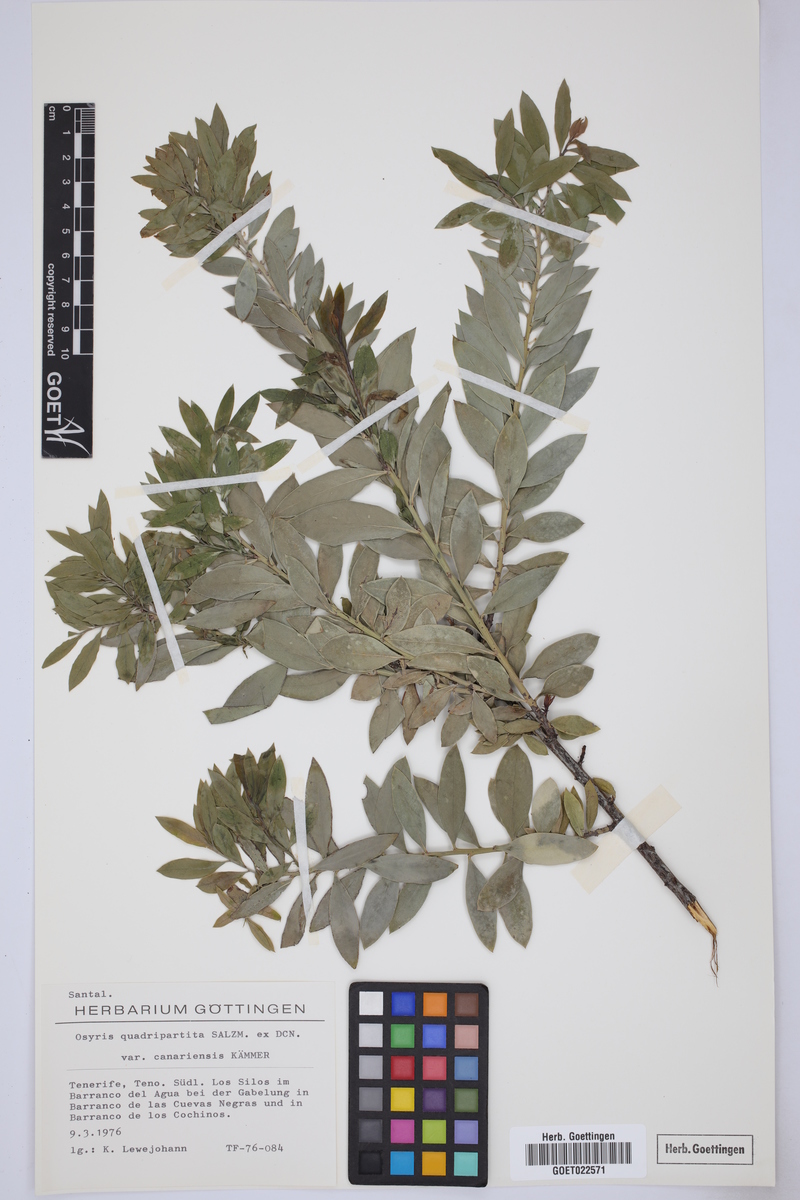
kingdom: Plantae
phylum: Tracheophyta
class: Magnoliopsida
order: Santalales
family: Santalaceae
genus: Osyris
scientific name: Osyris quadripartita
